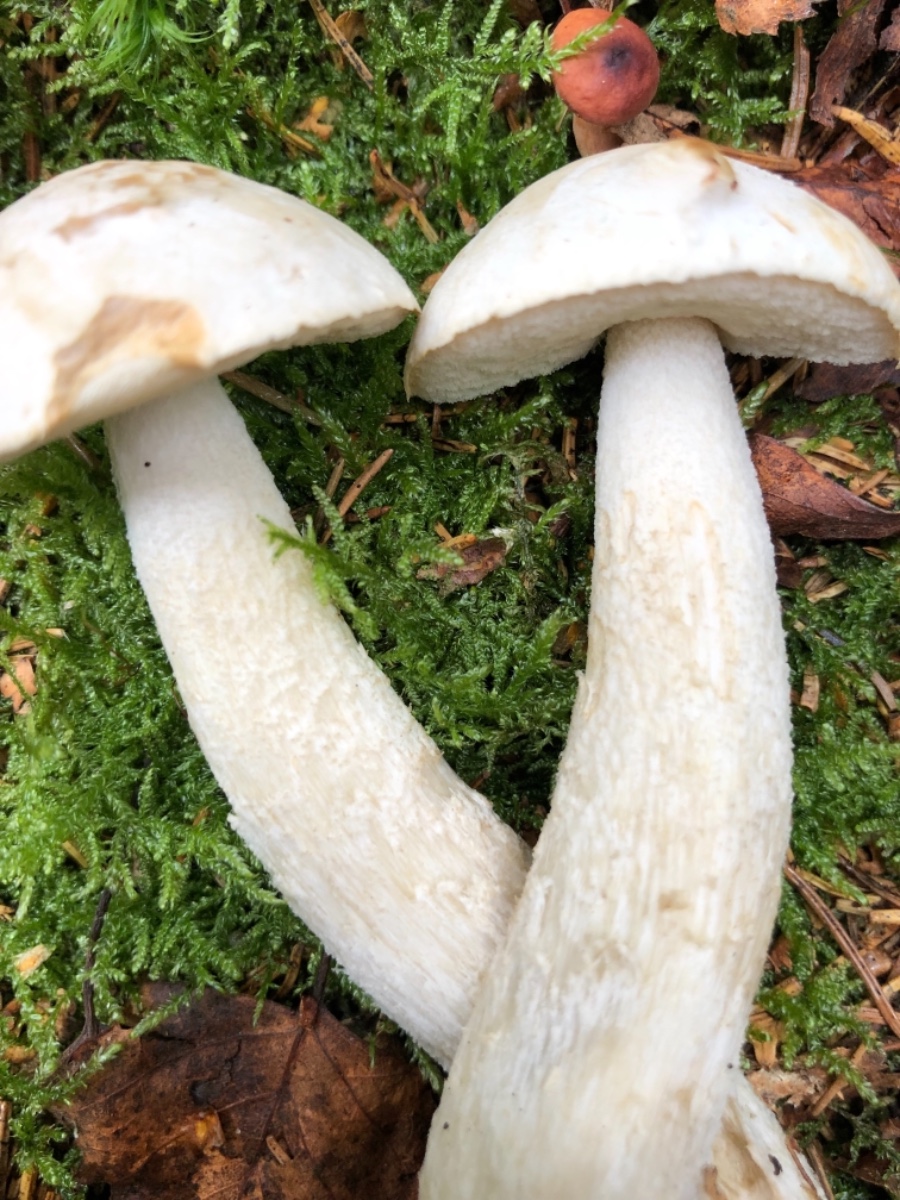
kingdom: Fungi
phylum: Basidiomycota
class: Agaricomycetes
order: Boletales
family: Boletaceae
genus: Leccinum
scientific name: Leccinum
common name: skælrørhat
